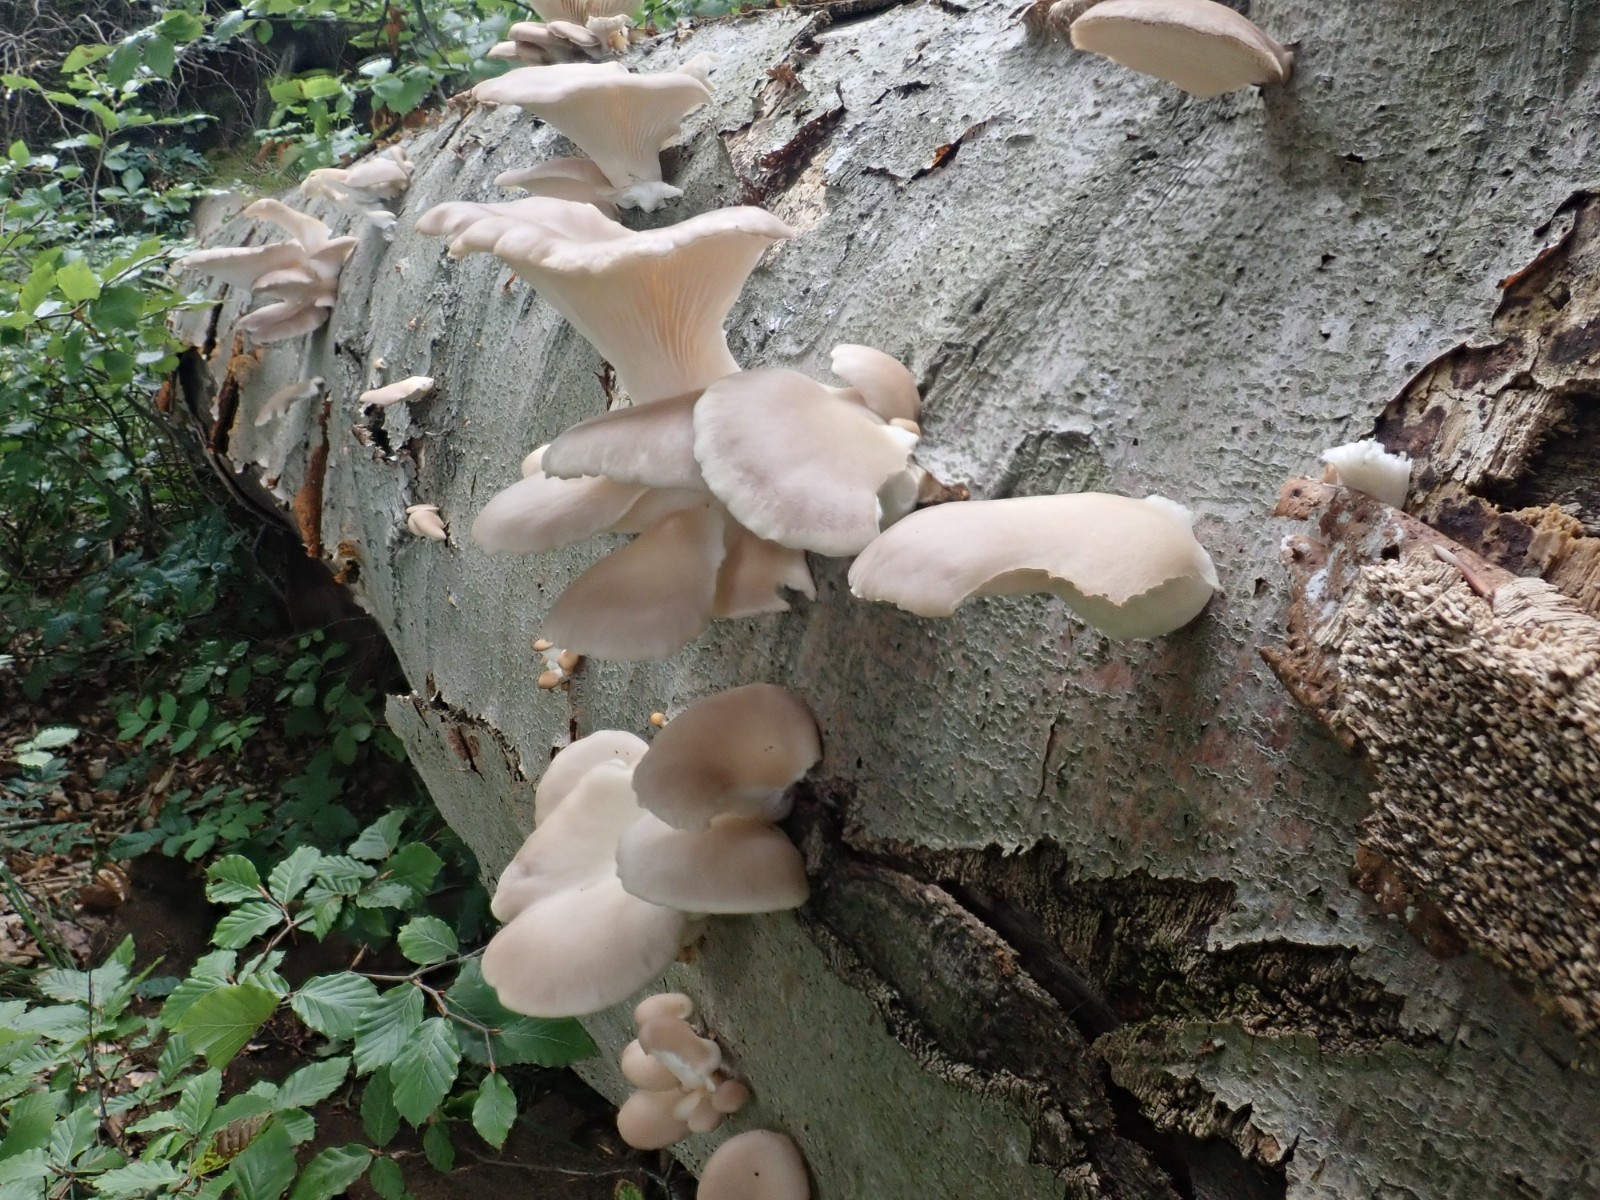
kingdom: Fungi
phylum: Basidiomycota
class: Agaricomycetes
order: Agaricales
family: Pleurotaceae
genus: Pleurotus
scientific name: Pleurotus pulmonarius
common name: sommer-østershat
